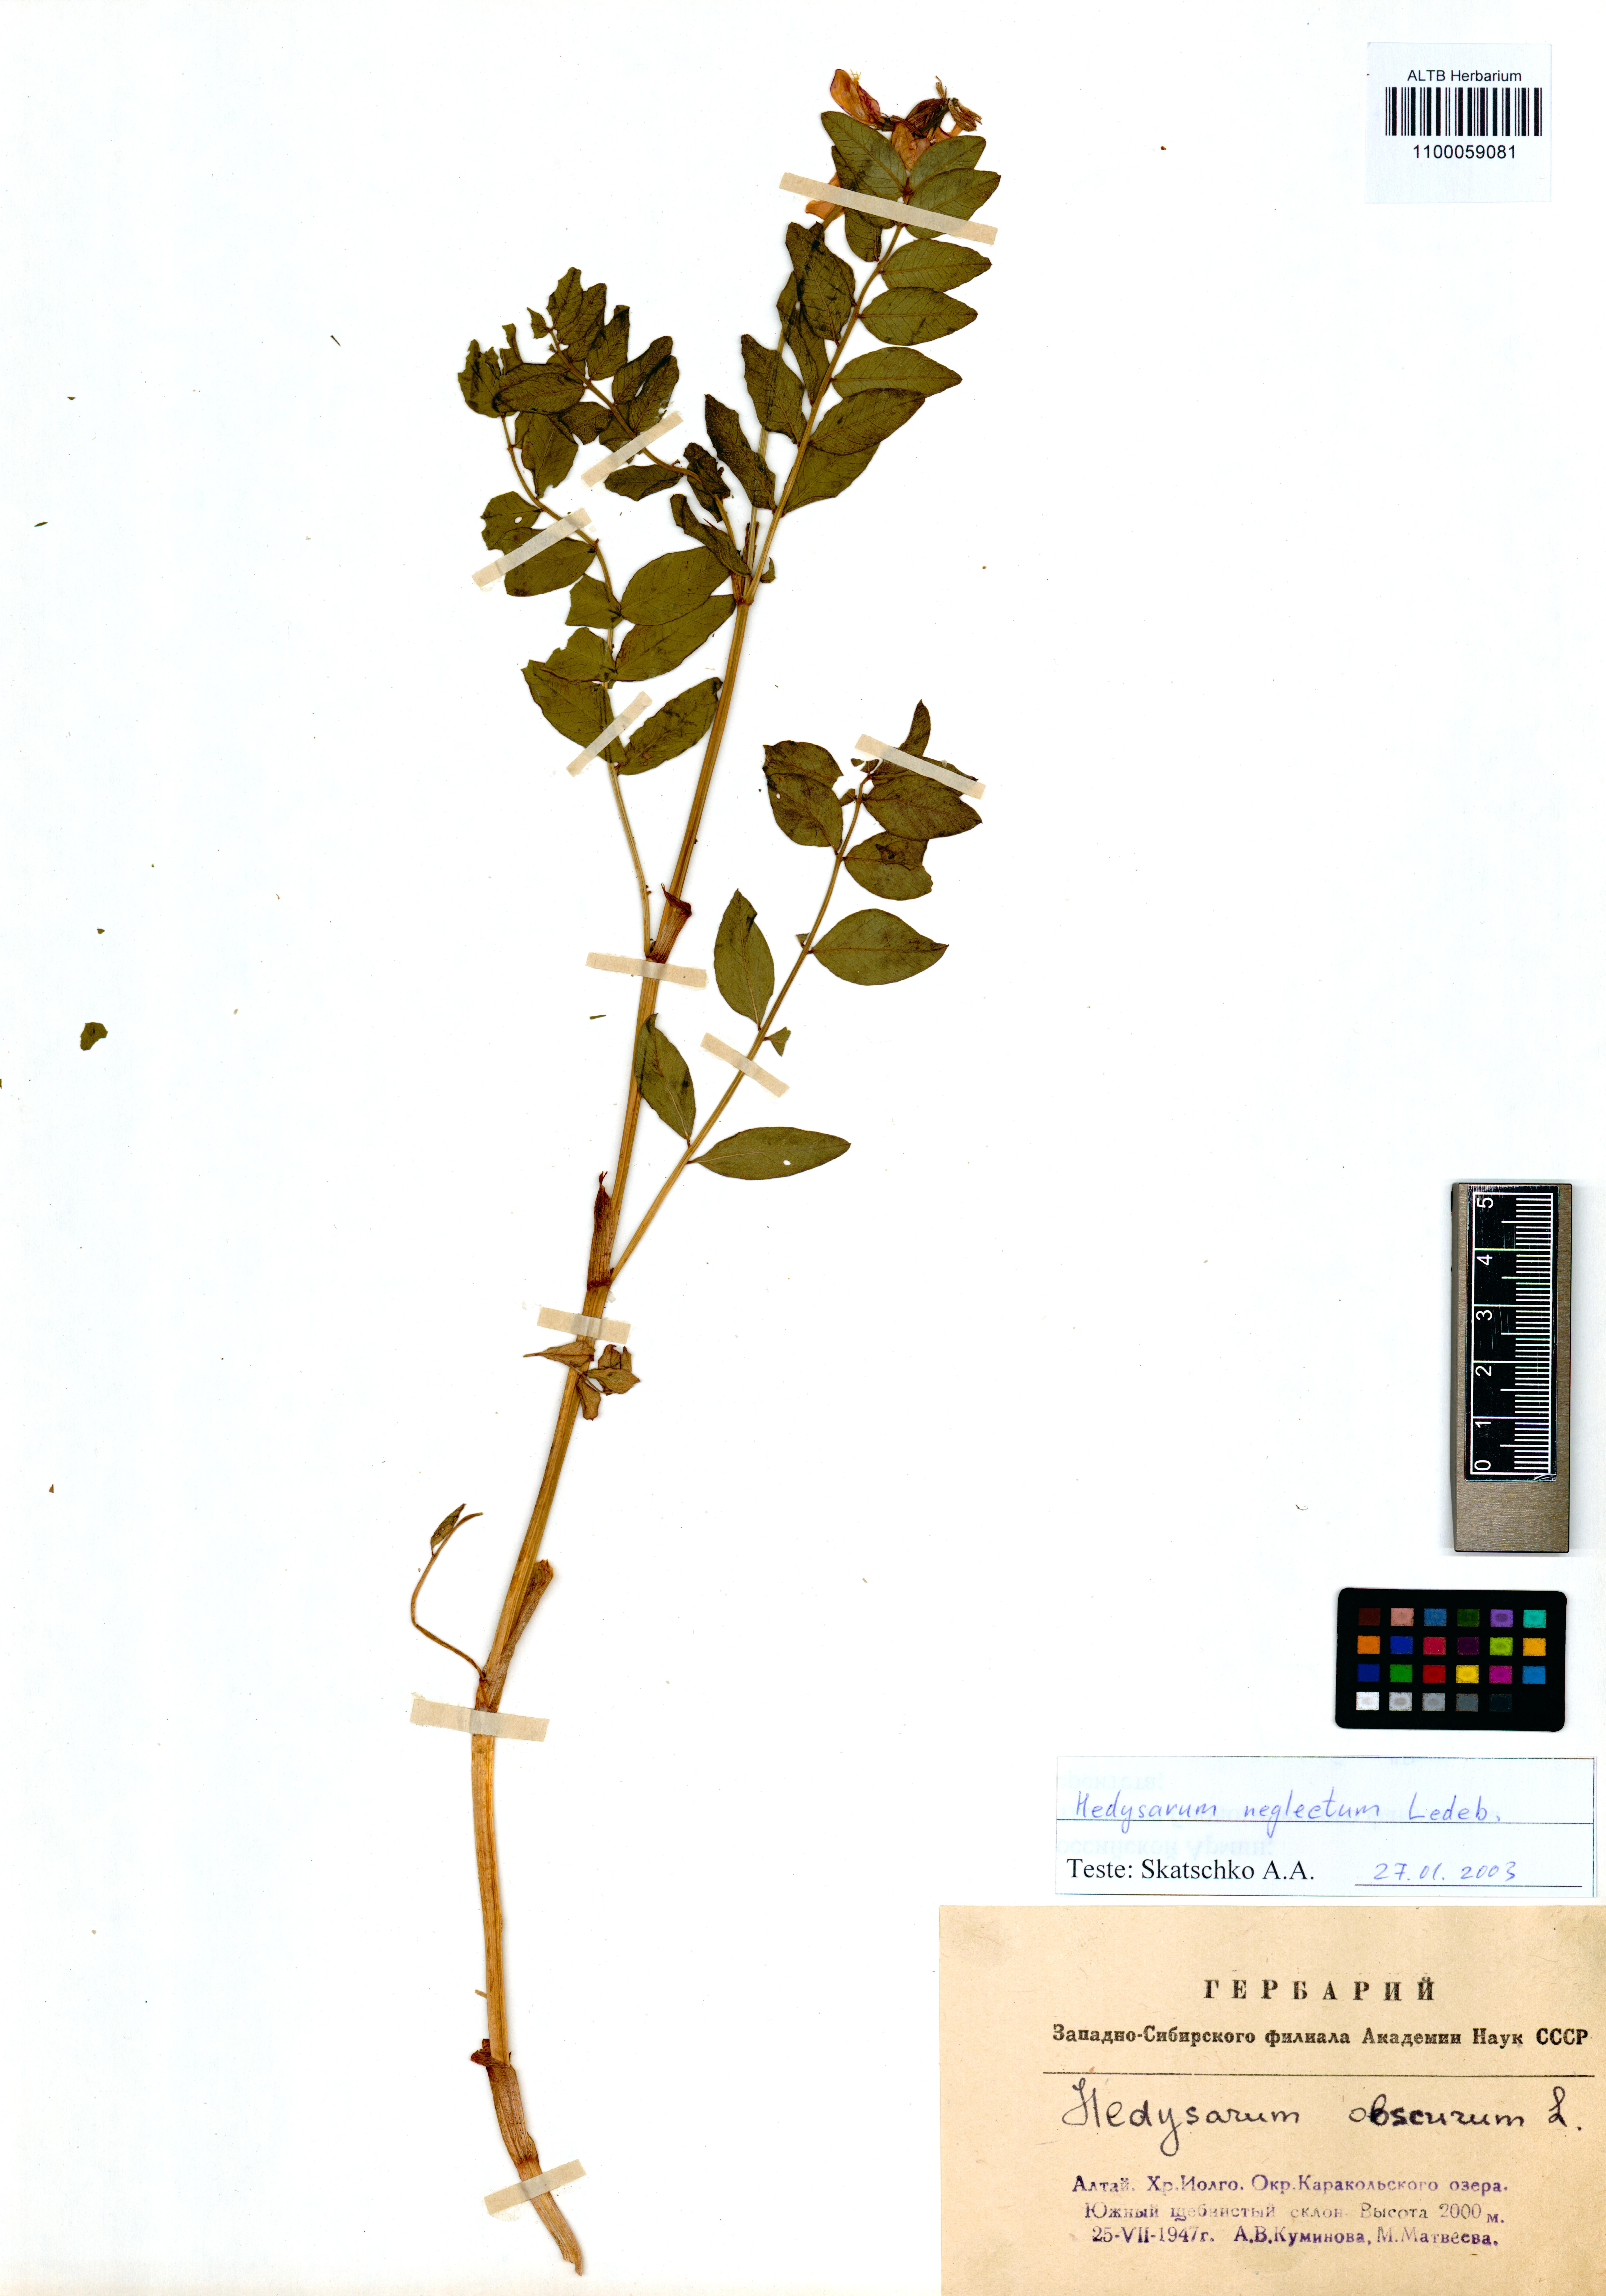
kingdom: Plantae
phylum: Tracheophyta
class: Magnoliopsida
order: Fabales
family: Fabaceae
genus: Hedysarum
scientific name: Hedysarum neglectum
